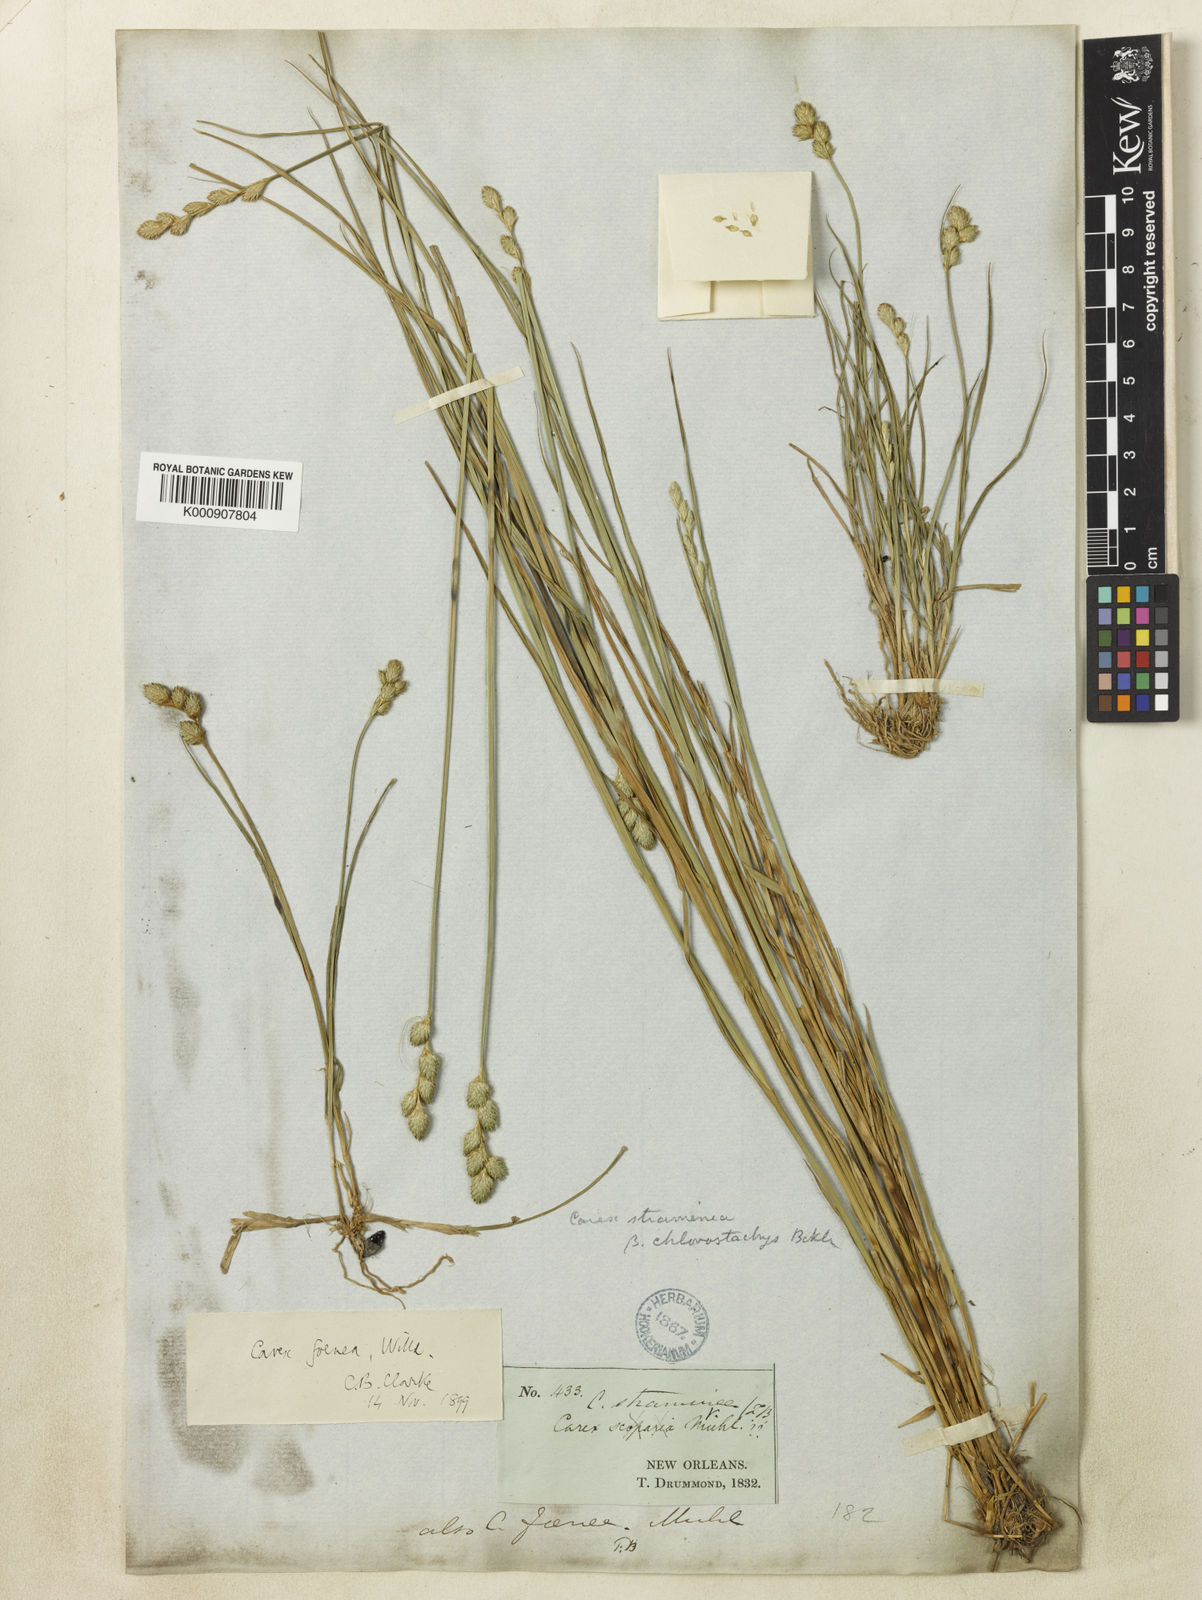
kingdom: Plantae
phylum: Tracheophyta
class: Liliopsida
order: Poales
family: Cyperaceae
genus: Carex
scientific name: Carex longii
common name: Long's sedge
